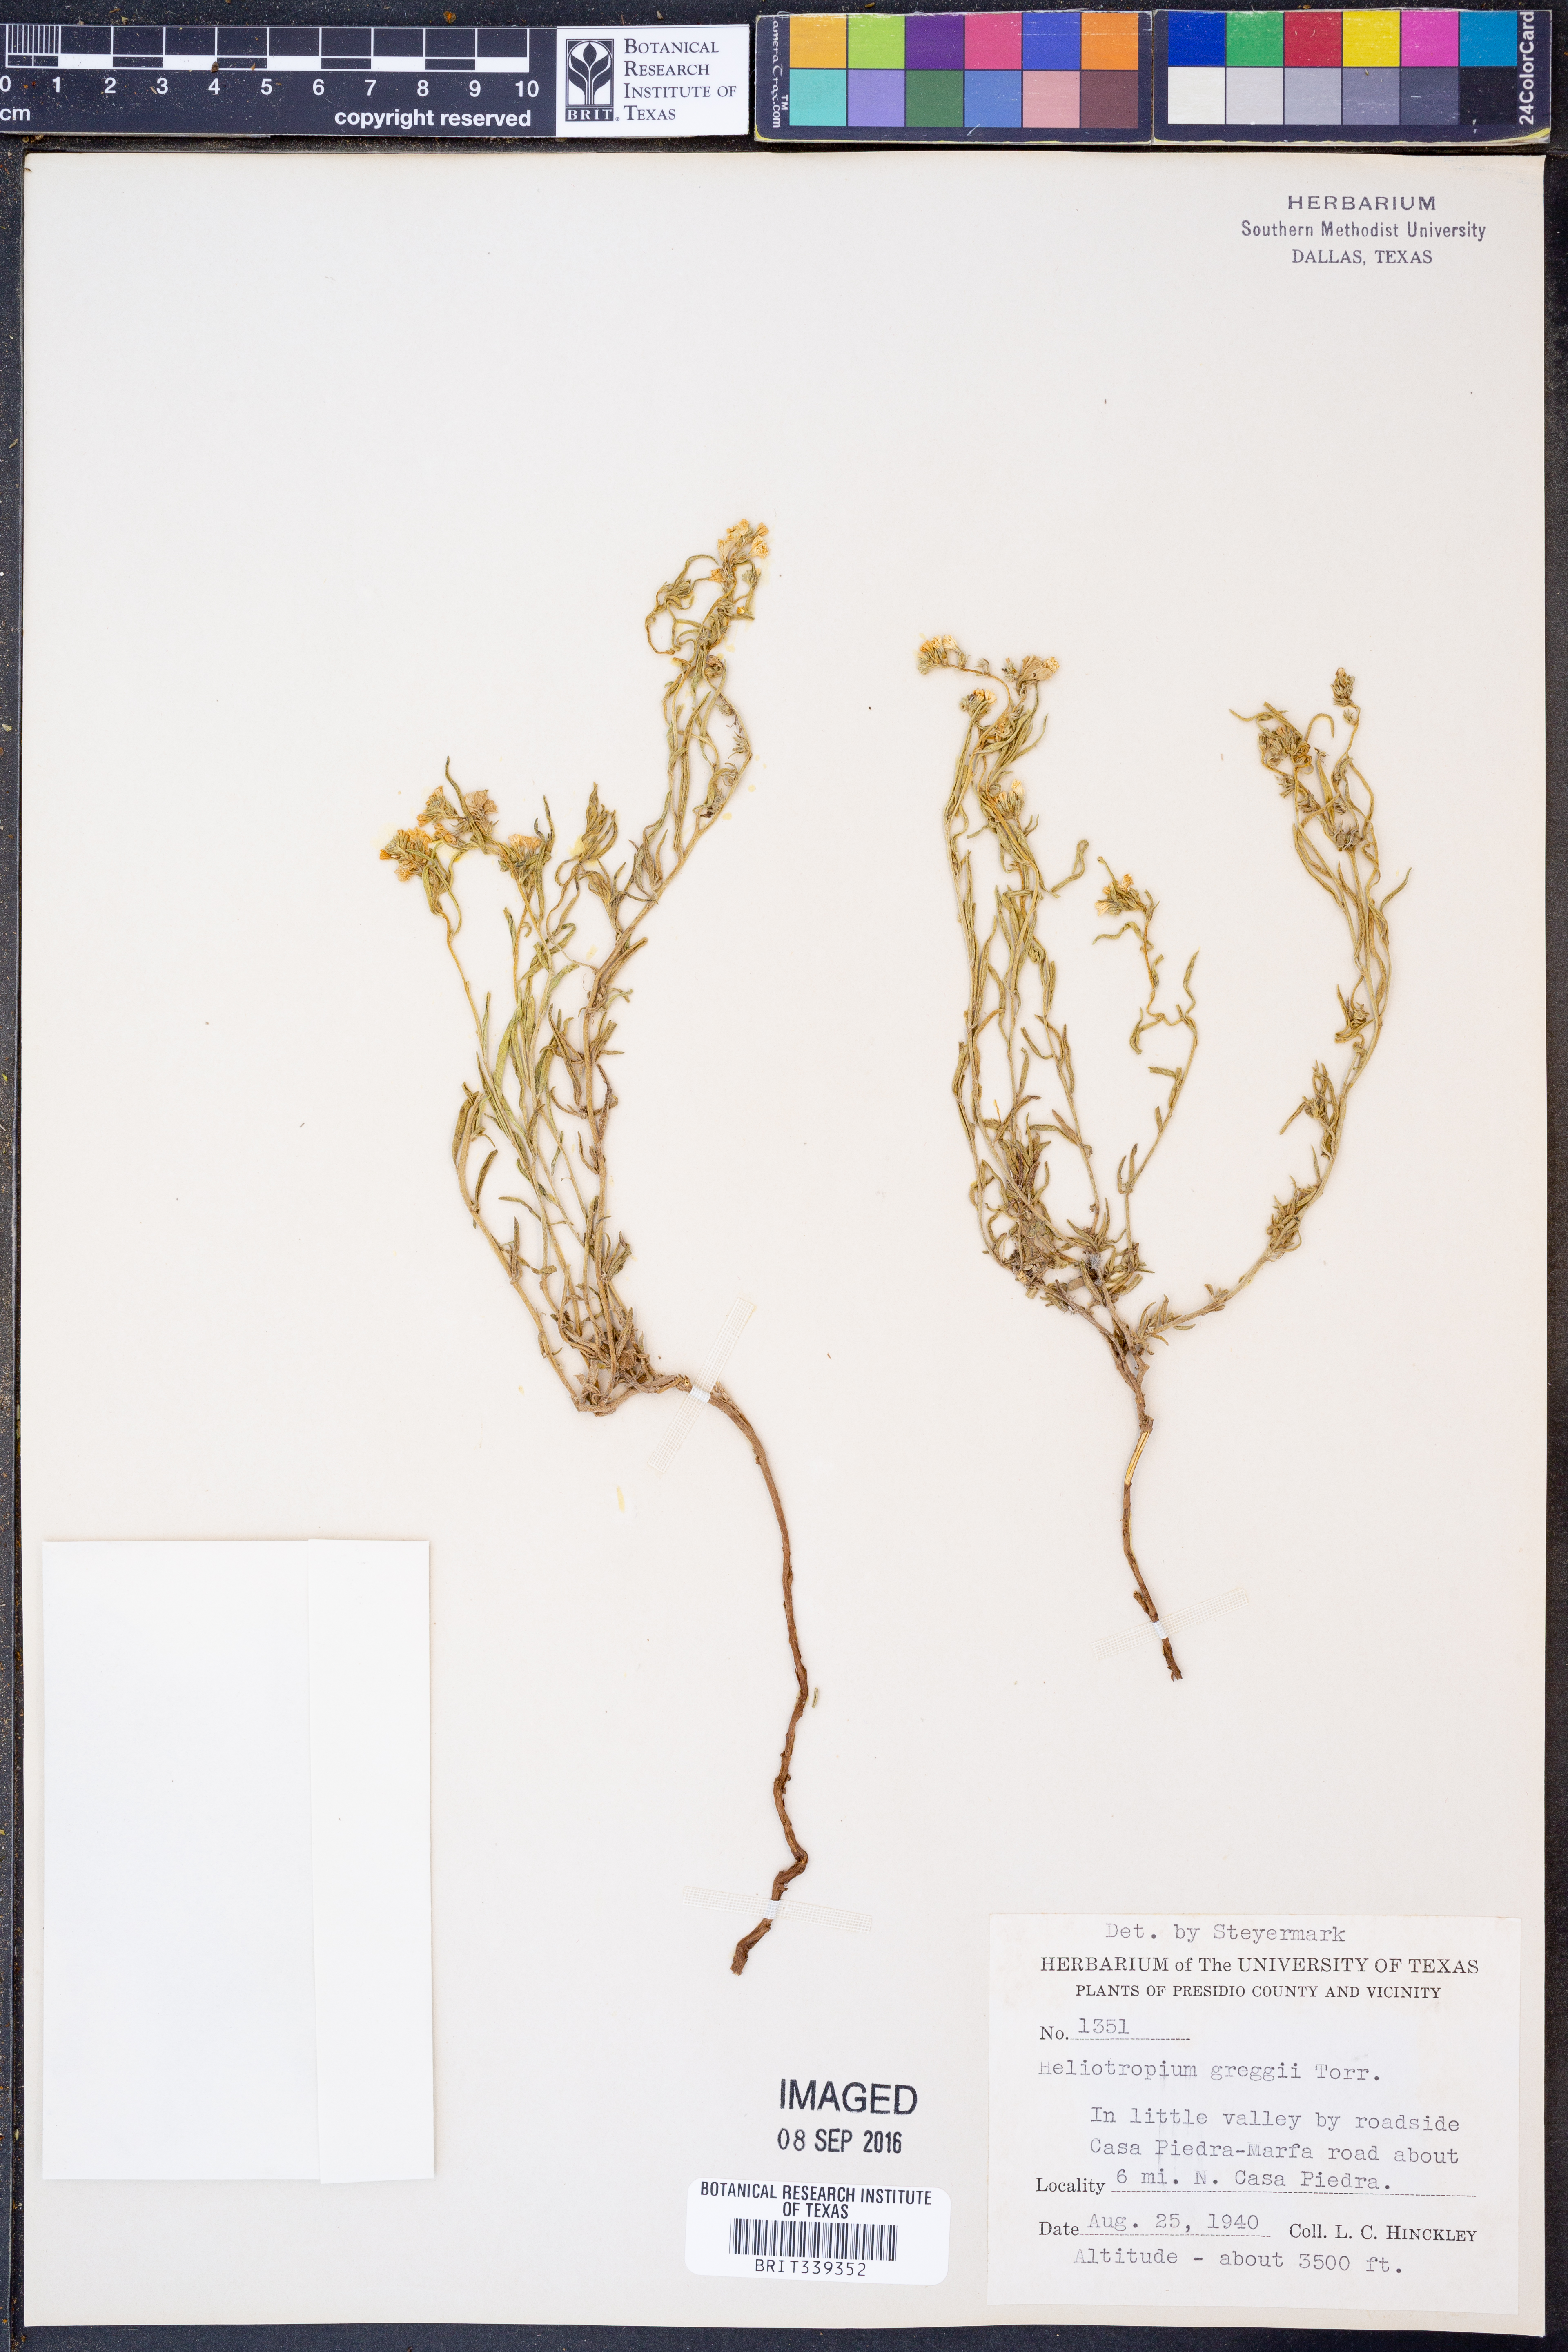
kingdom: Plantae
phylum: Tracheophyta
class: Magnoliopsida
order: Boraginales
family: Heliotropiaceae
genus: Euploca
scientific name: Euploca greggii
